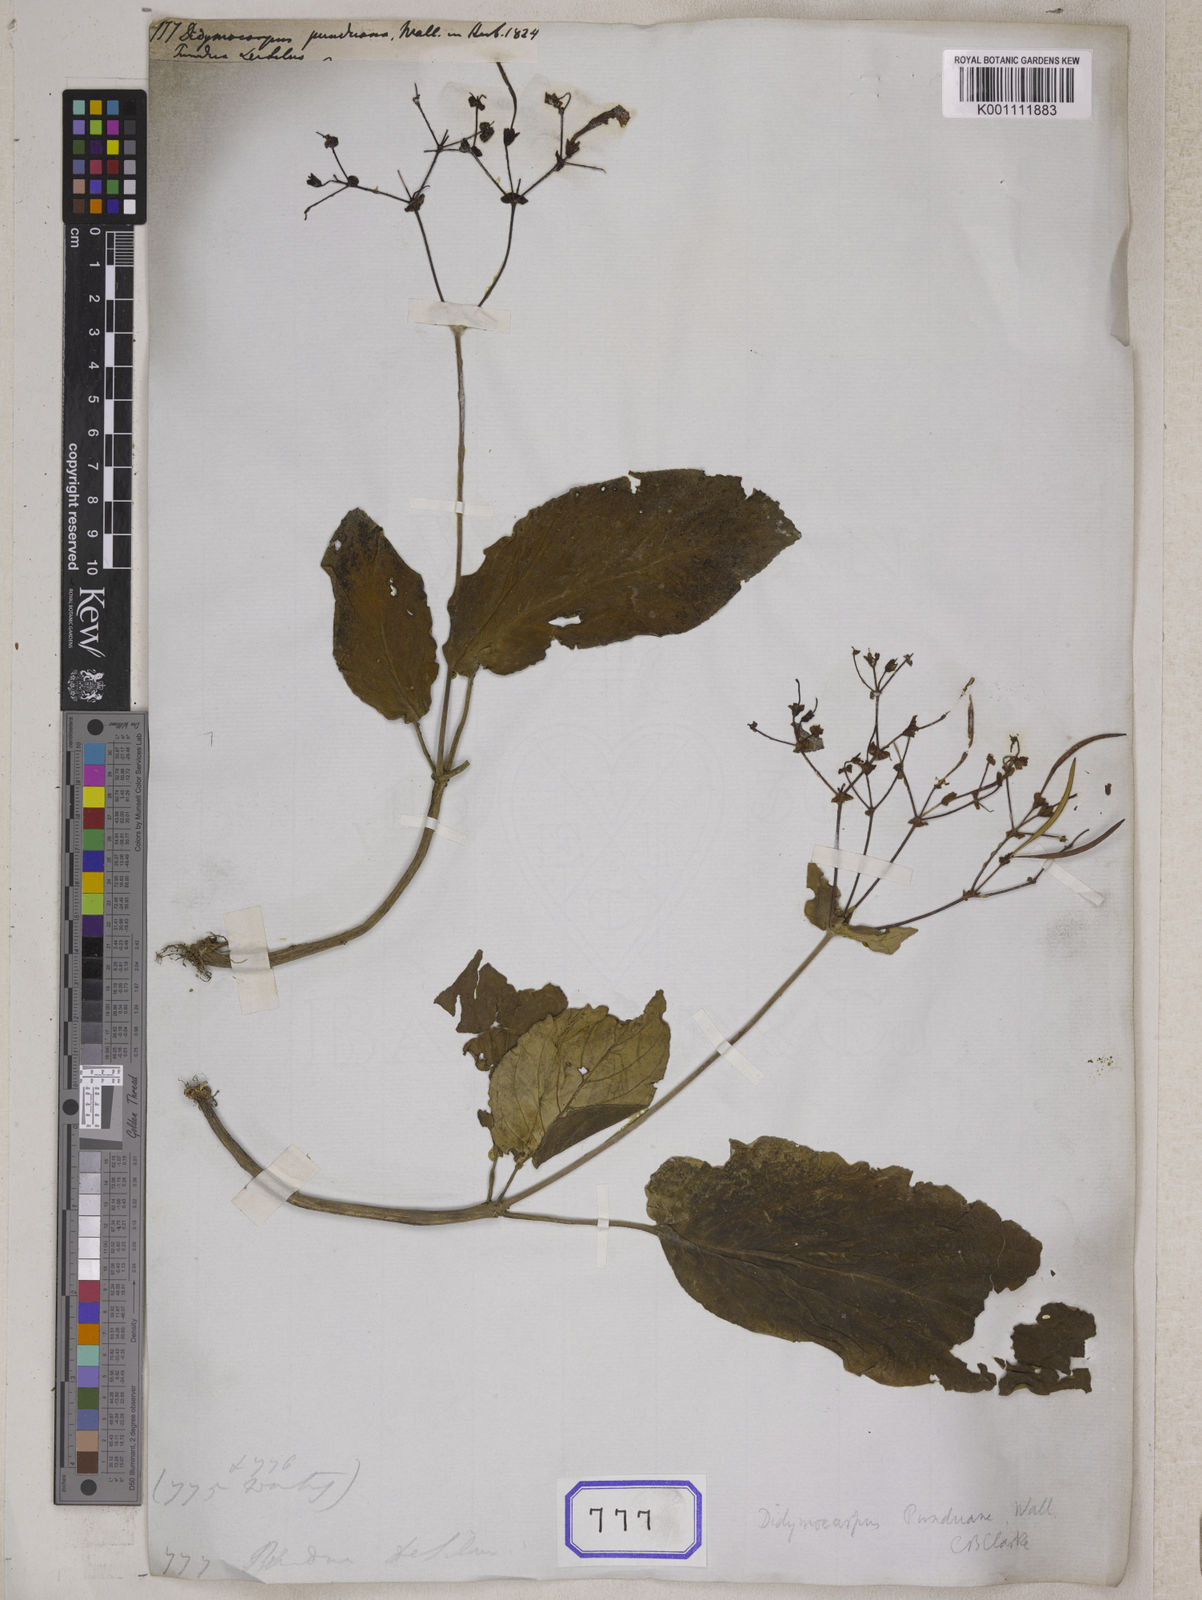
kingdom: Plantae
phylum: Tracheophyta
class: Magnoliopsida
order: Lamiales
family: Gesneriaceae
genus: Didymocarpus
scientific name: Didymocarpus
